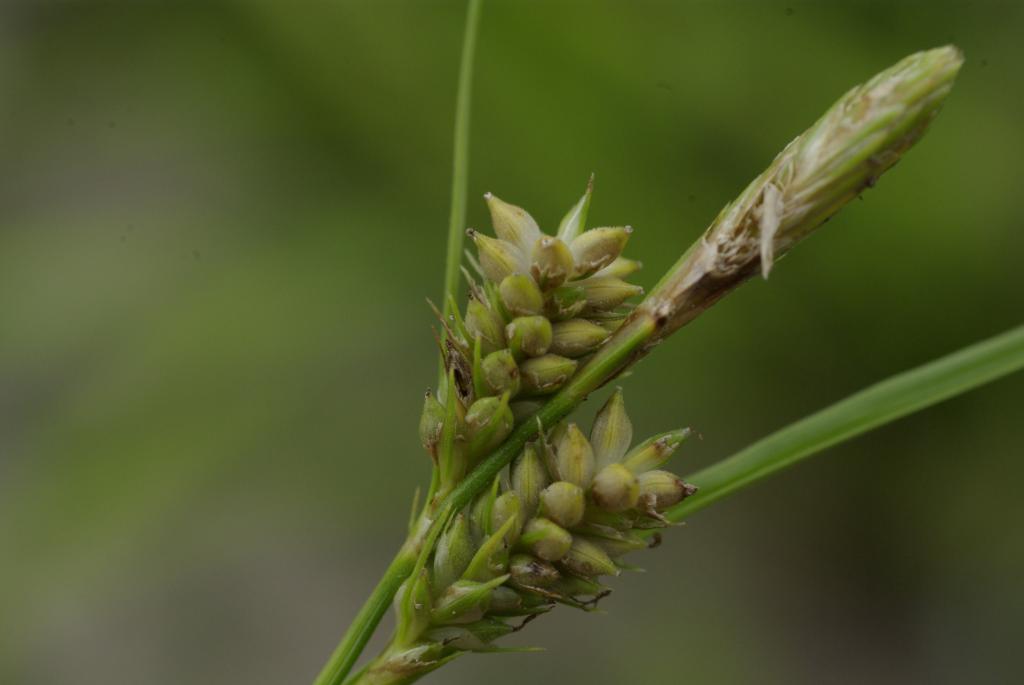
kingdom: Plantae
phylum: Tracheophyta
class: Liliopsida
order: Poales
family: Cyperaceae
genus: Carex
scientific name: Carex breviculmis
